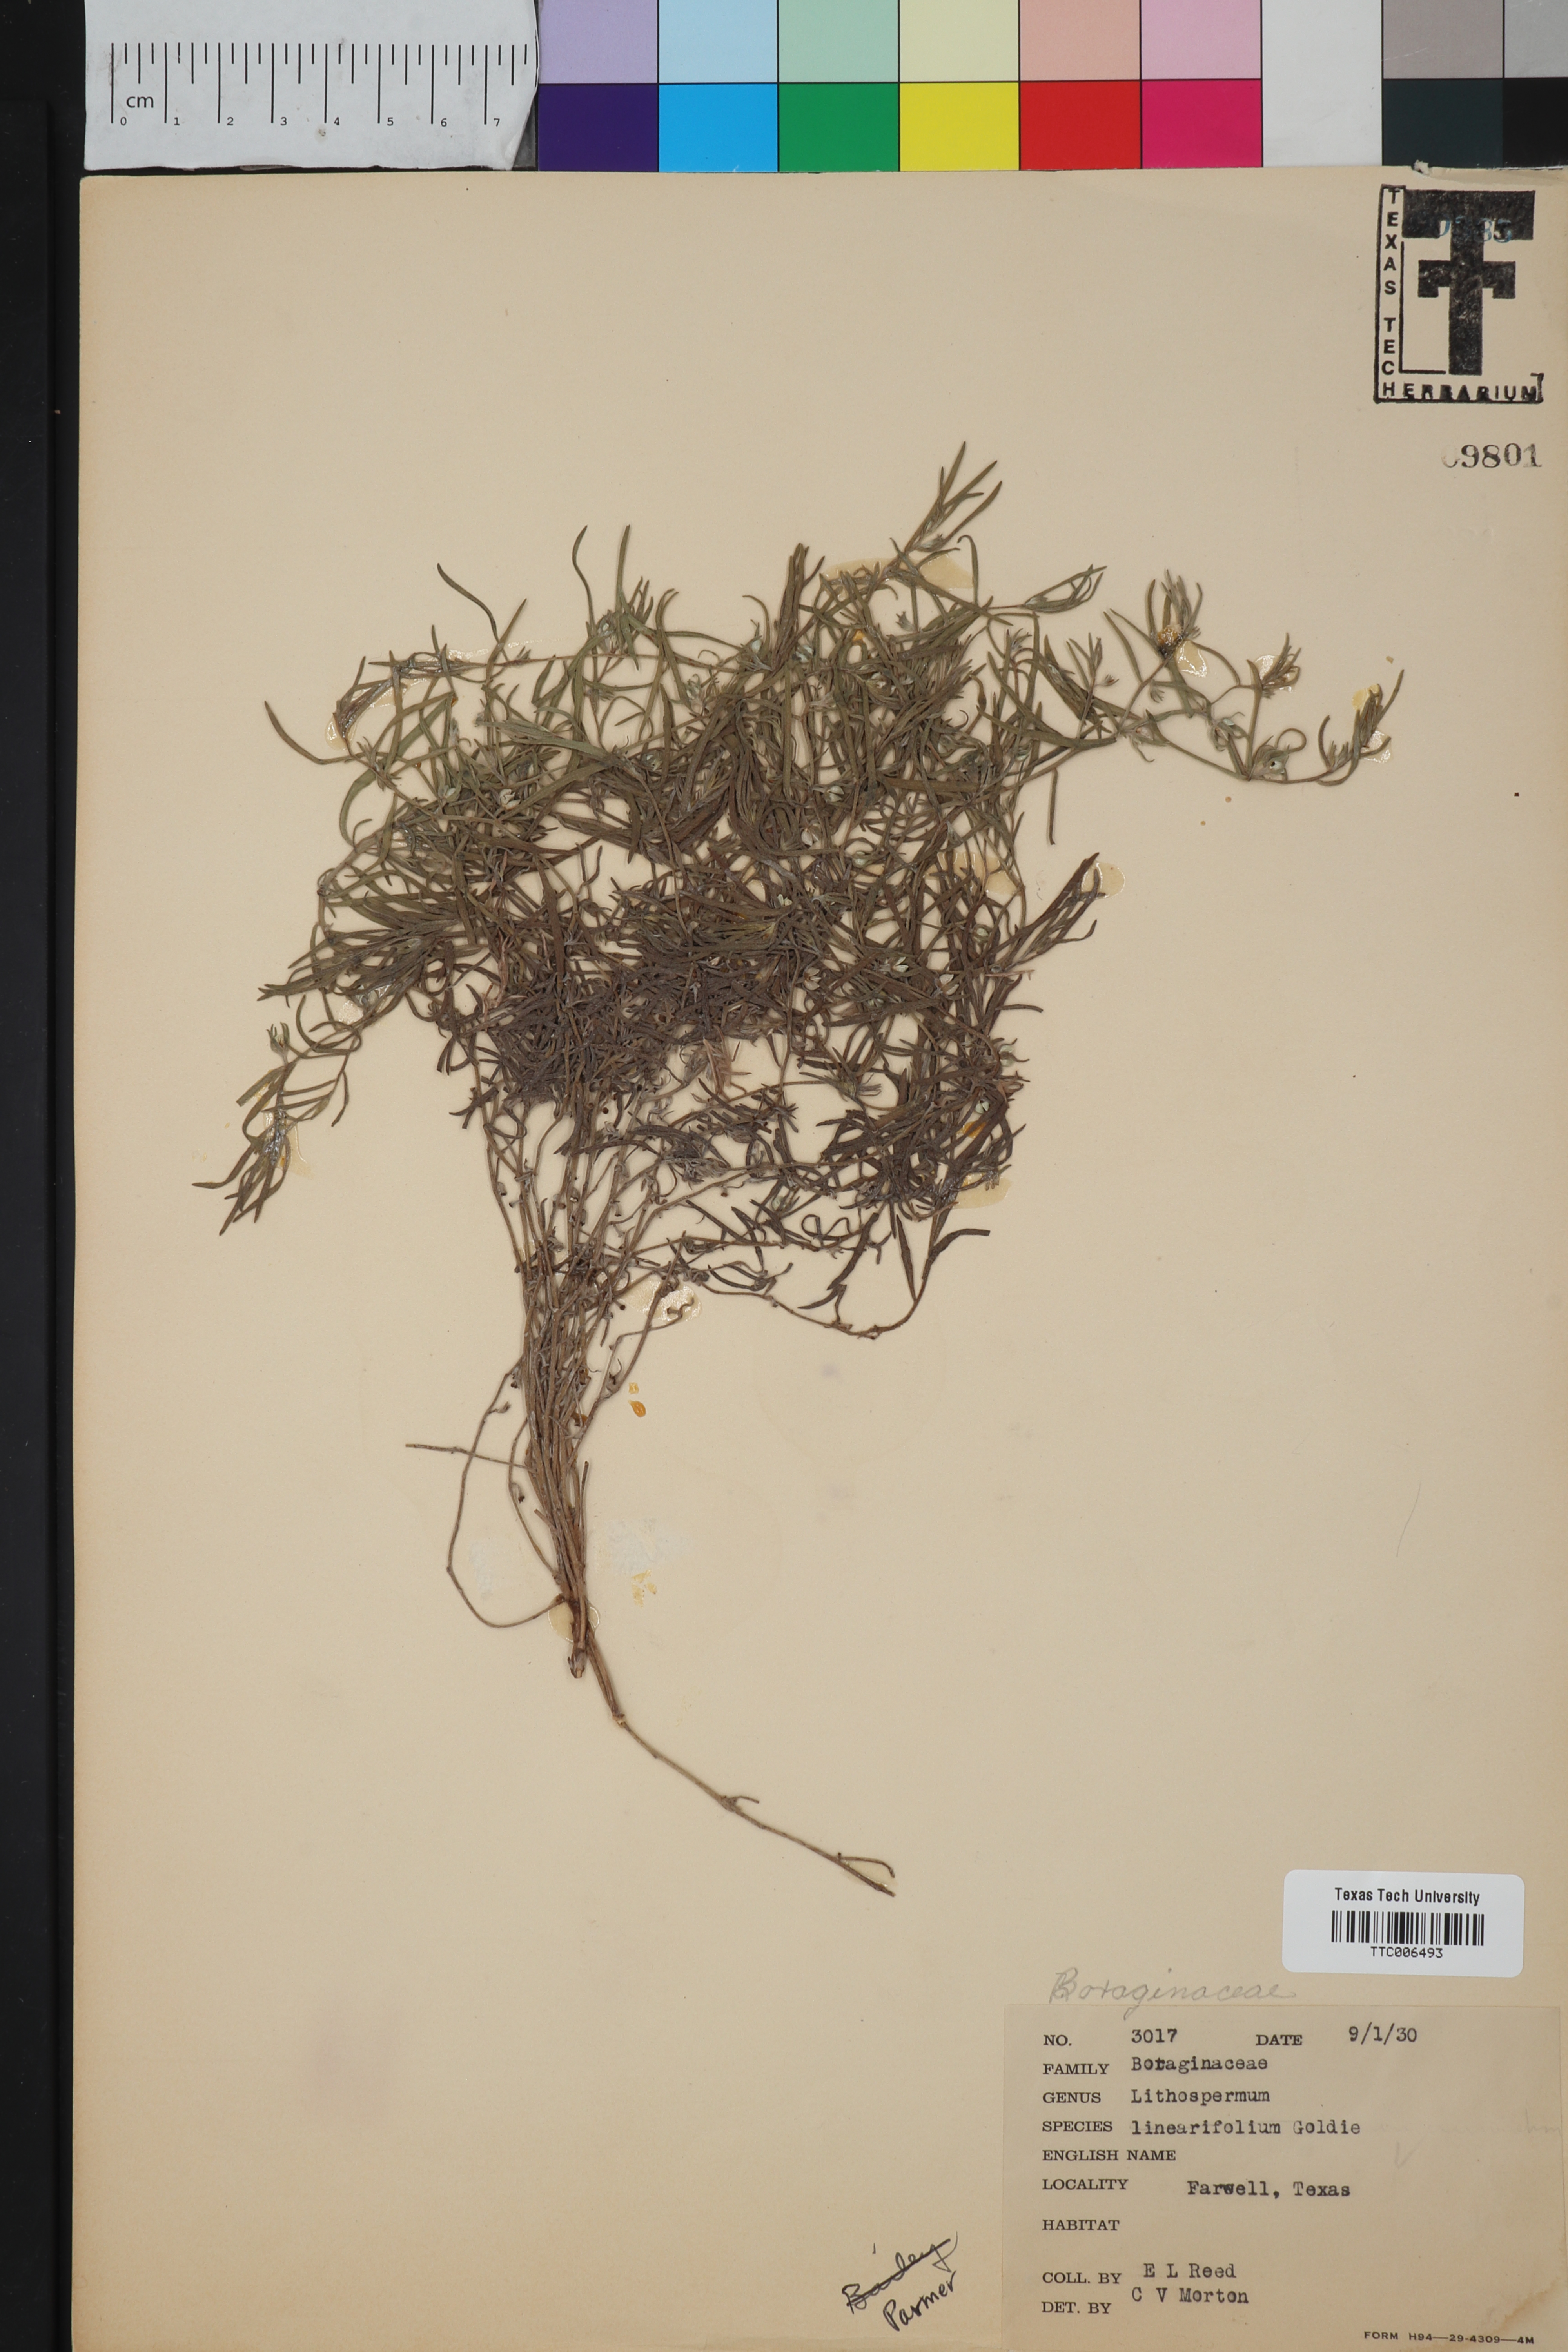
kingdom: Plantae
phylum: Tracheophyta
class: Magnoliopsida
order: Boraginales
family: Boraginaceae
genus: Lithospermum
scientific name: Lithospermum incisum
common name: Fringed gromwell
